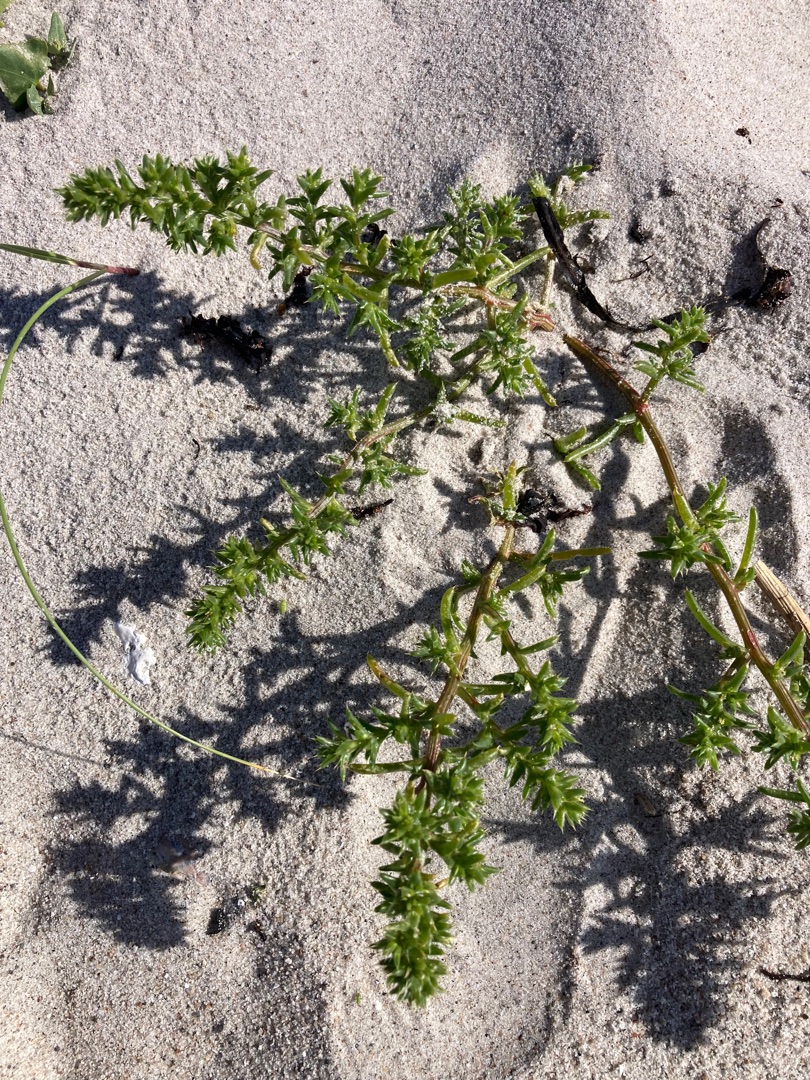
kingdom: Plantae
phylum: Tracheophyta
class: Magnoliopsida
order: Caryophyllales
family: Amaranthaceae
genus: Salsola
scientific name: Salsola kali
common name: Sodaurt
